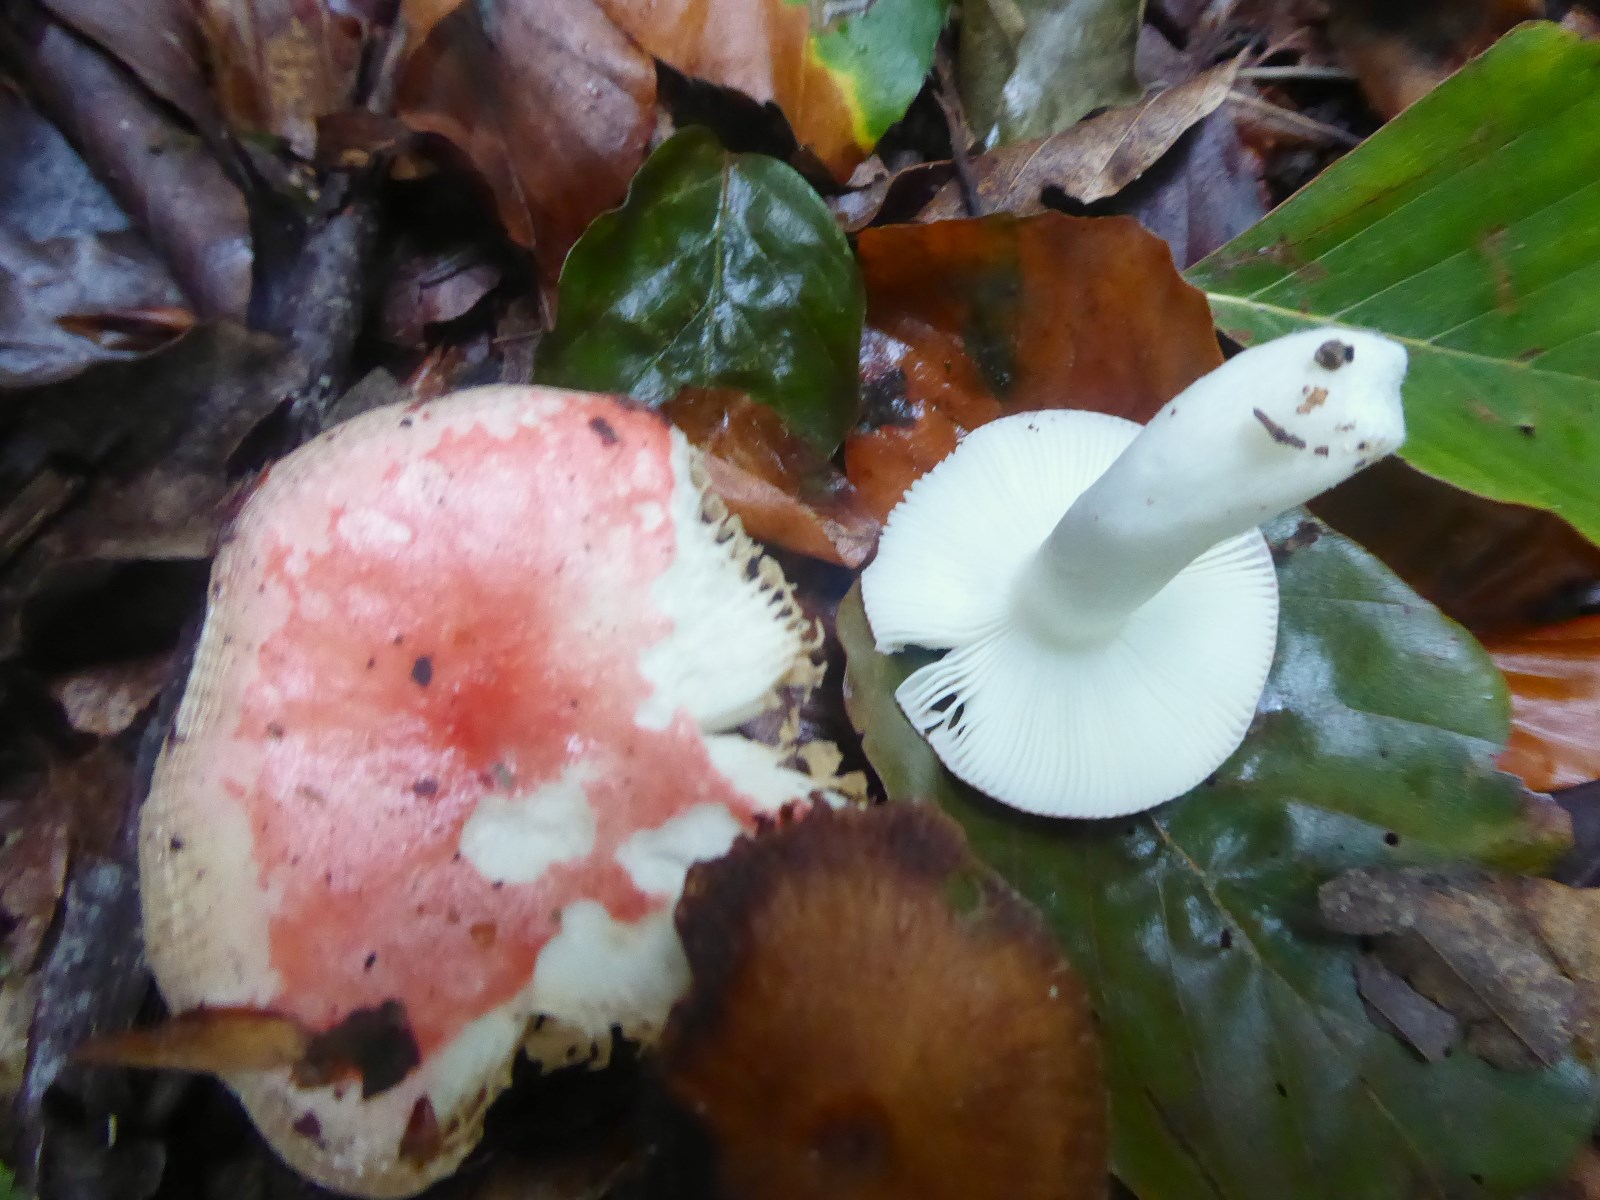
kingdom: Fungi
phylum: Basidiomycota
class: Agaricomycetes
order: Russulales
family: Russulaceae
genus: Russula
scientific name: Russula nobilis
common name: lille gift-skørhat
